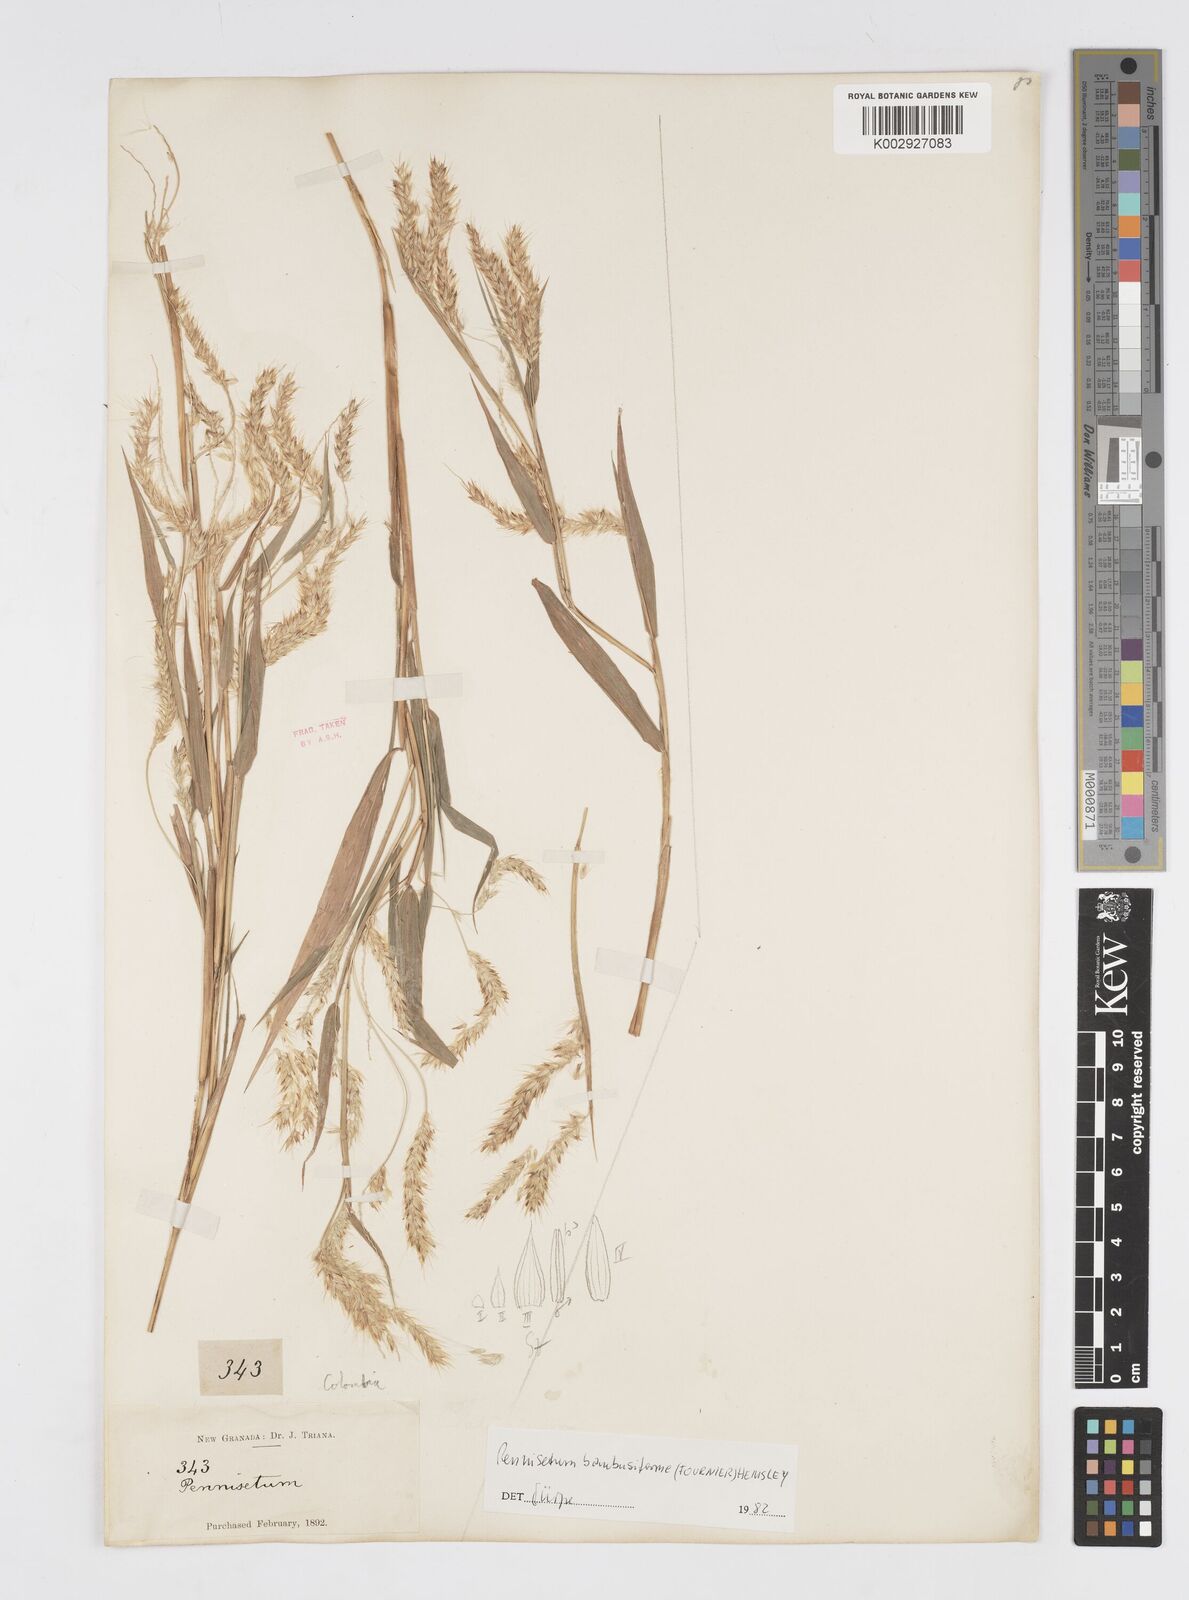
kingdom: Plantae
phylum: Tracheophyta
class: Liliopsida
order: Poales
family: Poaceae
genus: Cenchrus
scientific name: Cenchrus tristachyus
